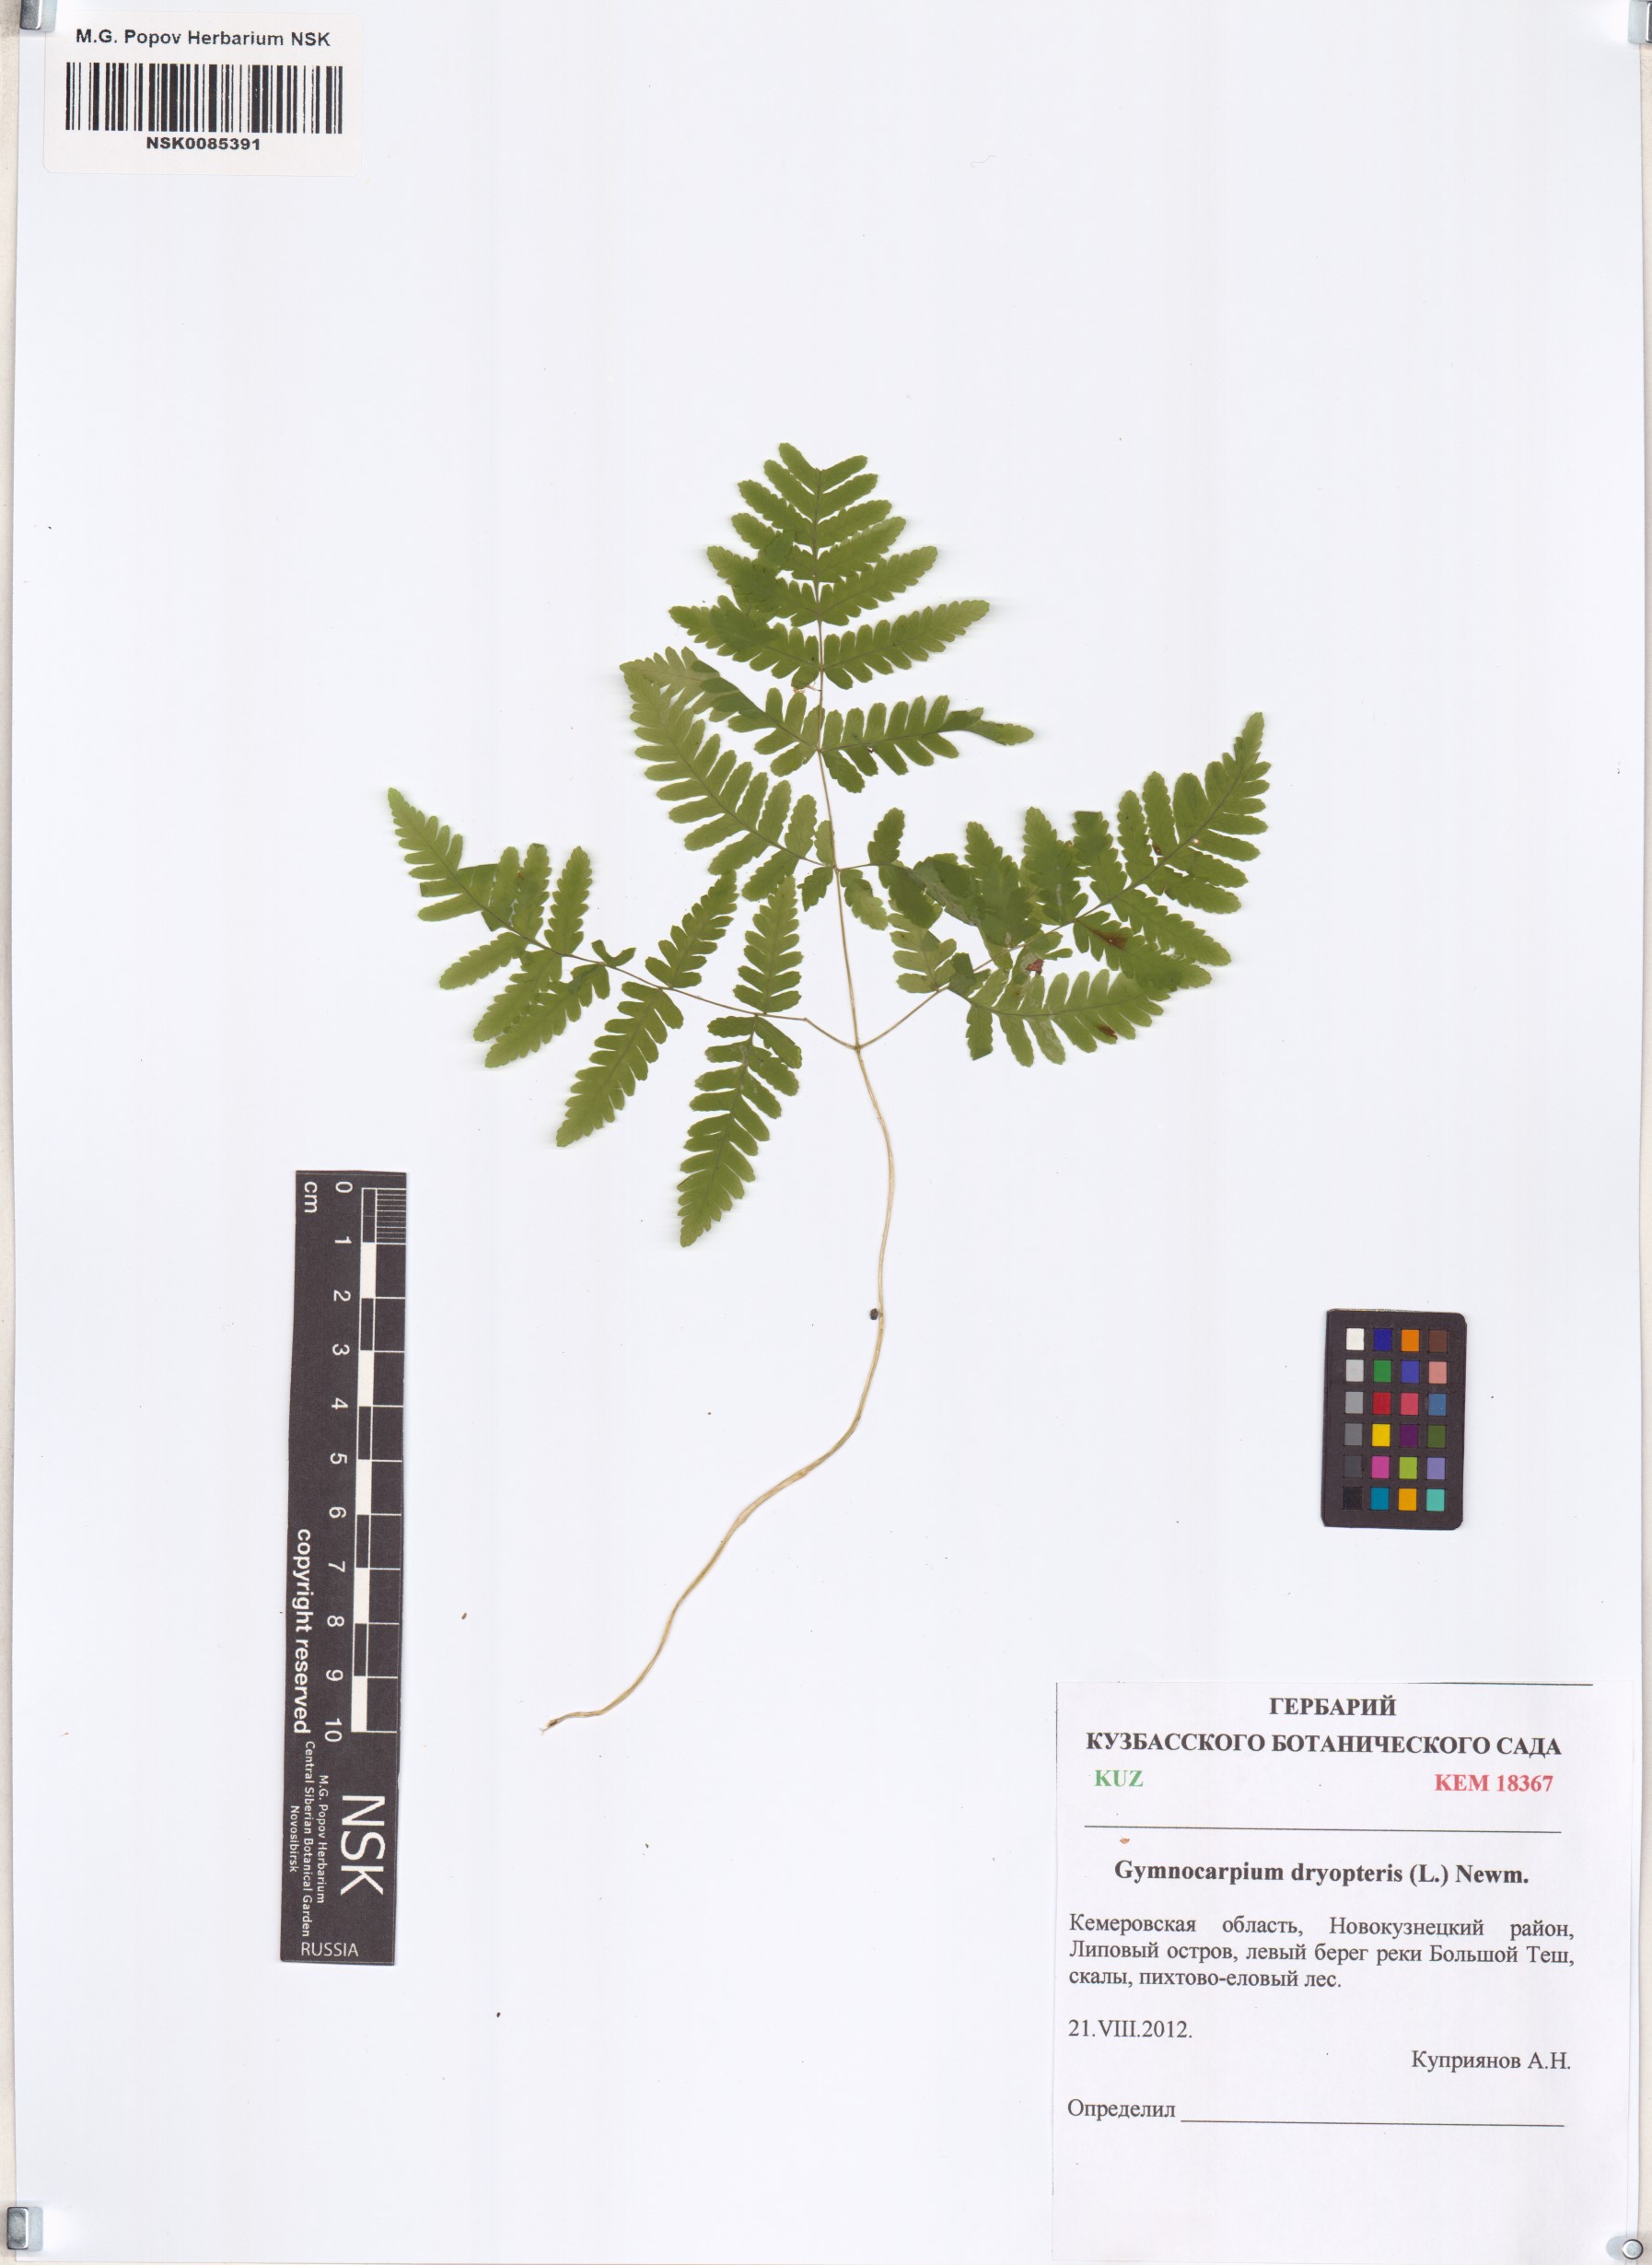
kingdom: Plantae
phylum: Tracheophyta
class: Polypodiopsida
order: Polypodiales
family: Cystopteridaceae
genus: Gymnocarpium
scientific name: Gymnocarpium dryopteris
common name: Oak fern
